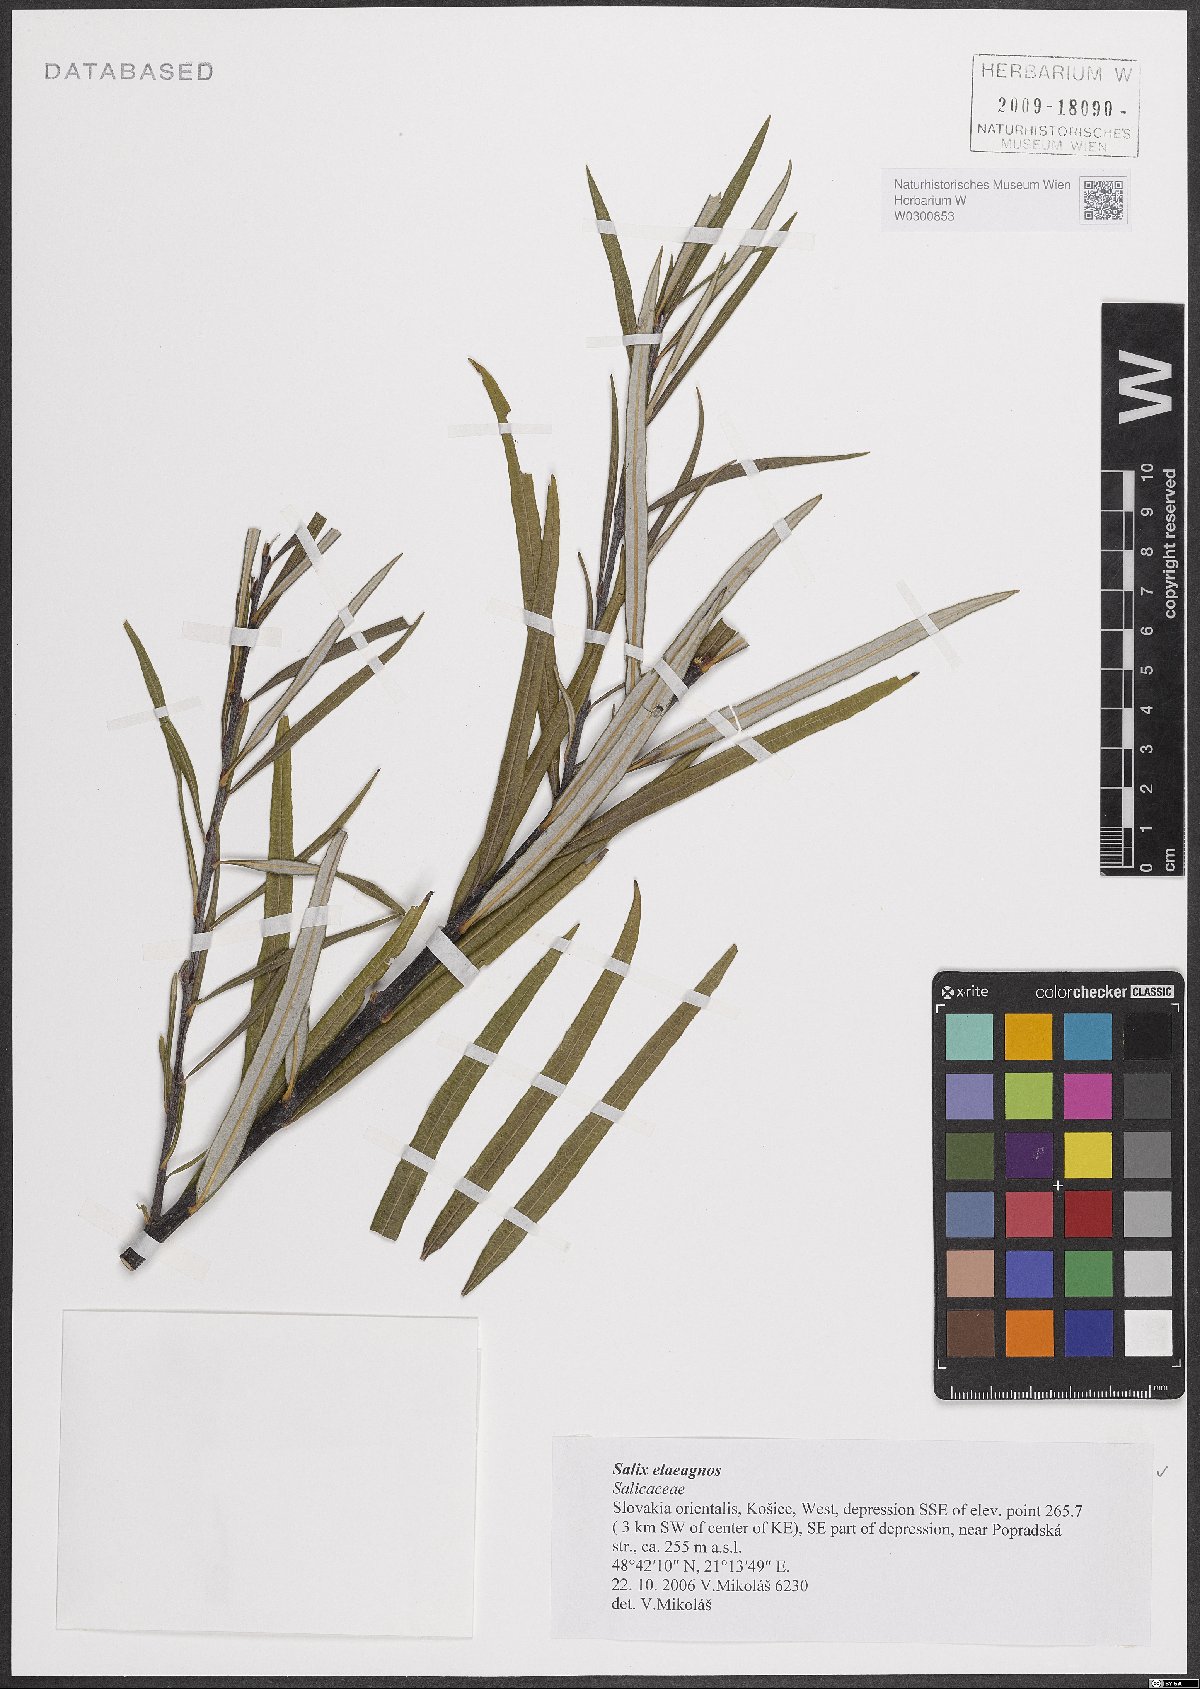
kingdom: Plantae
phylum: Tracheophyta
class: Magnoliopsida
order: Malpighiales
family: Salicaceae
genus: Salix
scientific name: Salix eleagnos
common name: Elaeagnus willow
